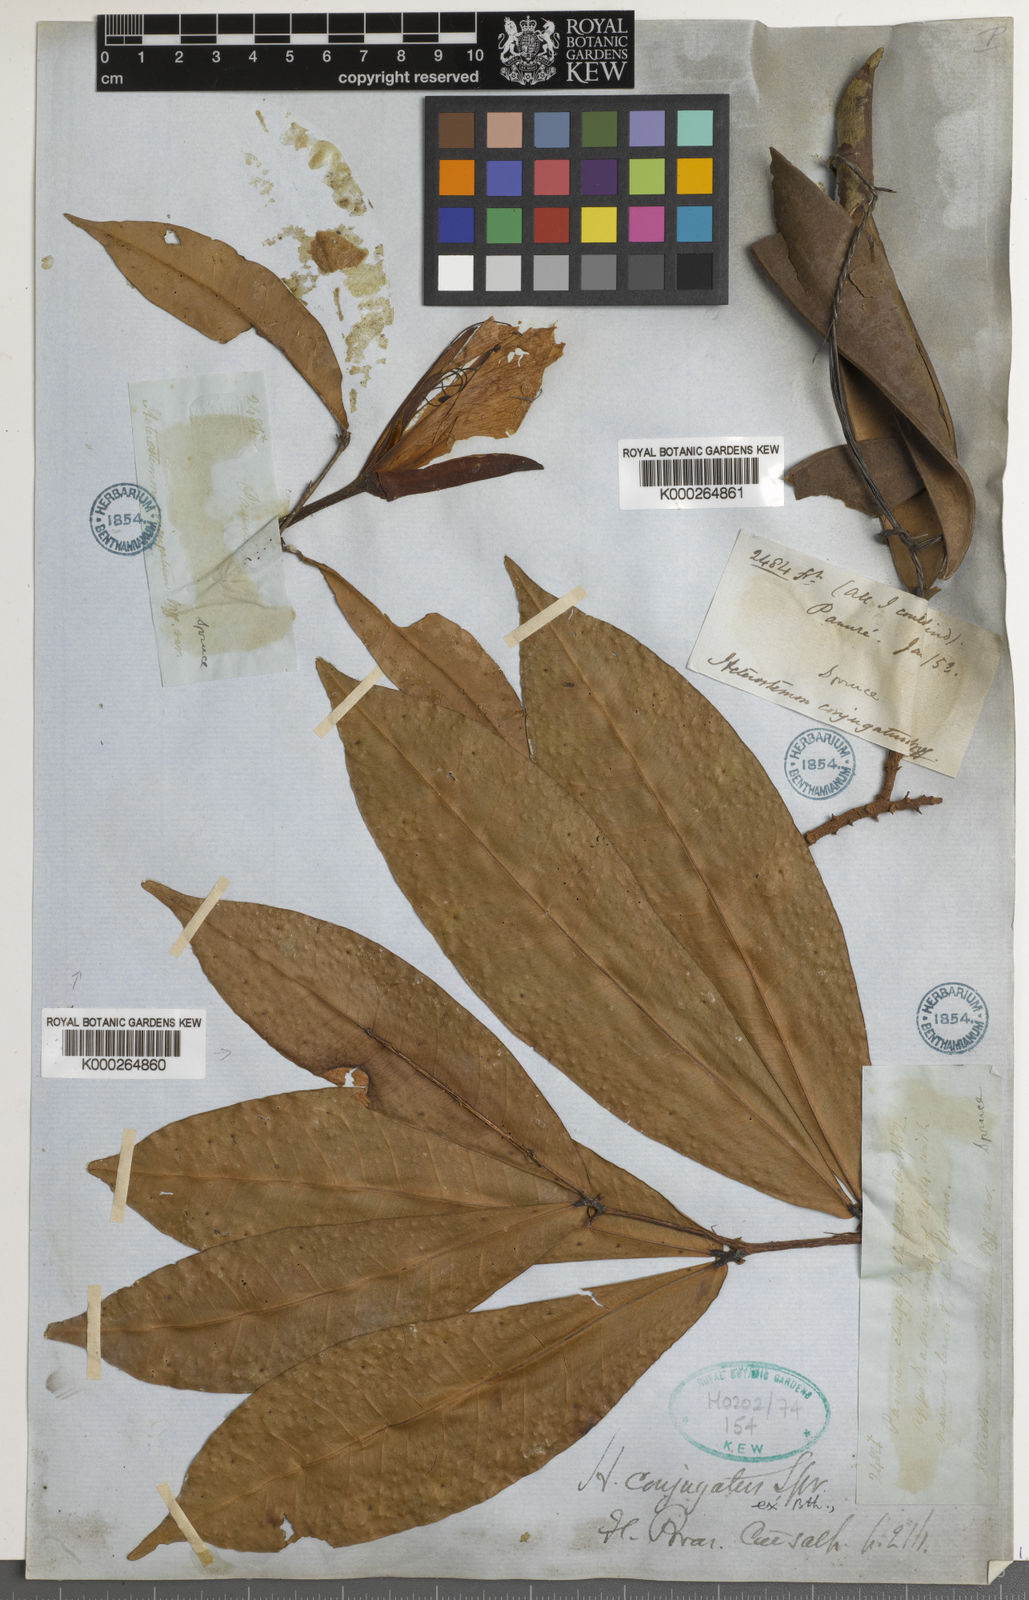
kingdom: Plantae
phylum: Tracheophyta
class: Magnoliopsida
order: Fabales
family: Fabaceae
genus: Heterostemon
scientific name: Heterostemon conjugatus
